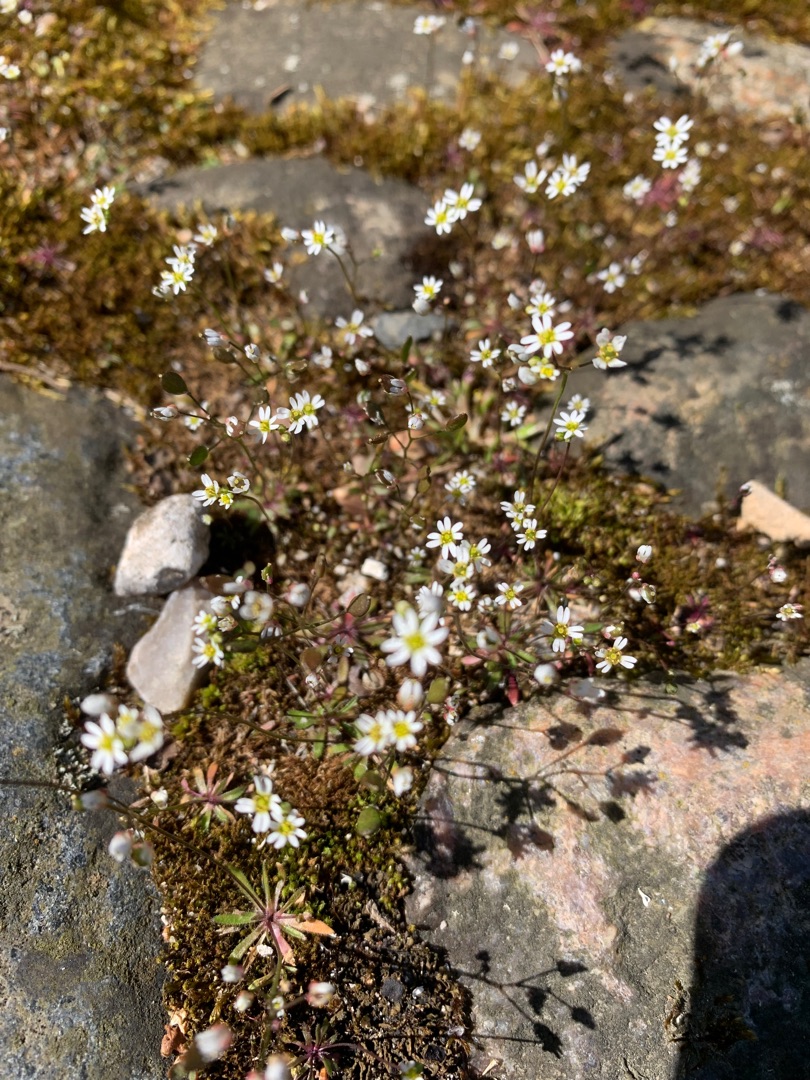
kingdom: Plantae
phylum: Tracheophyta
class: Magnoliopsida
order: Brassicales
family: Brassicaceae
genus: Draba
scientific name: Draba verna
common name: Vår-gæslingeblomst
